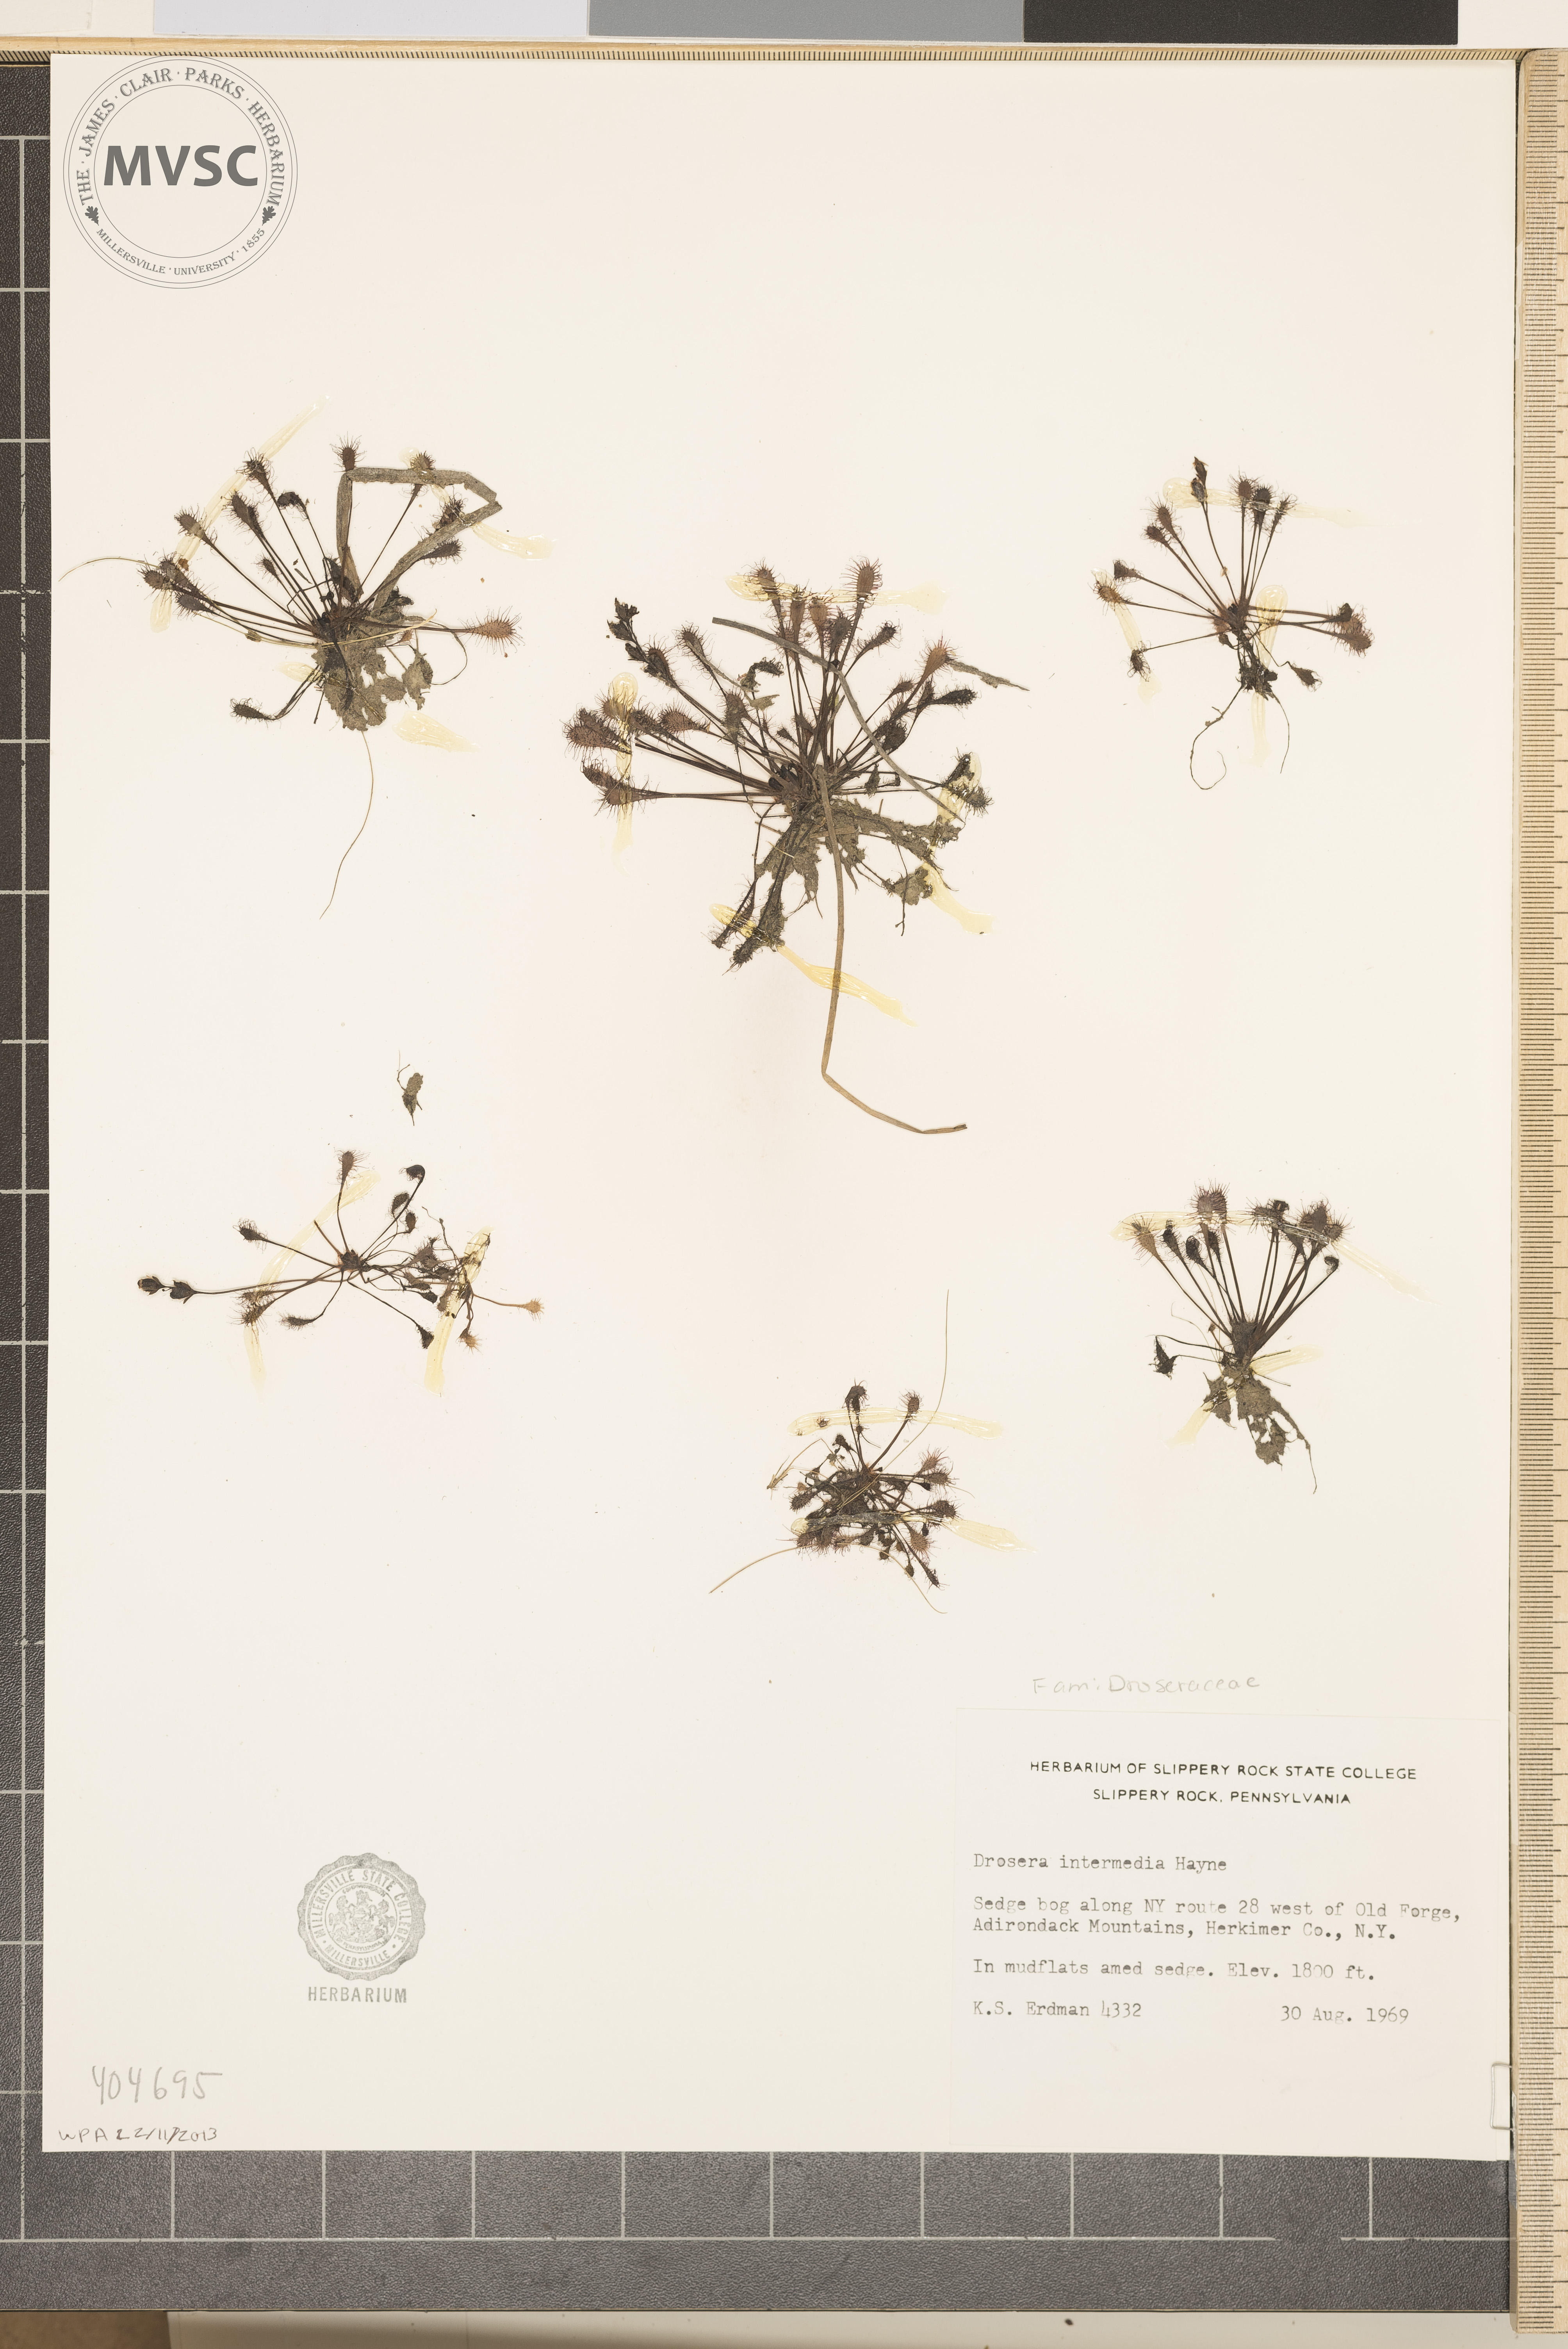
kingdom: Plantae
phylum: Tracheophyta
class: Magnoliopsida
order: Caryophyllales
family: Droseraceae
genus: Drosera
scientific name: Drosera intermedia
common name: sundew
